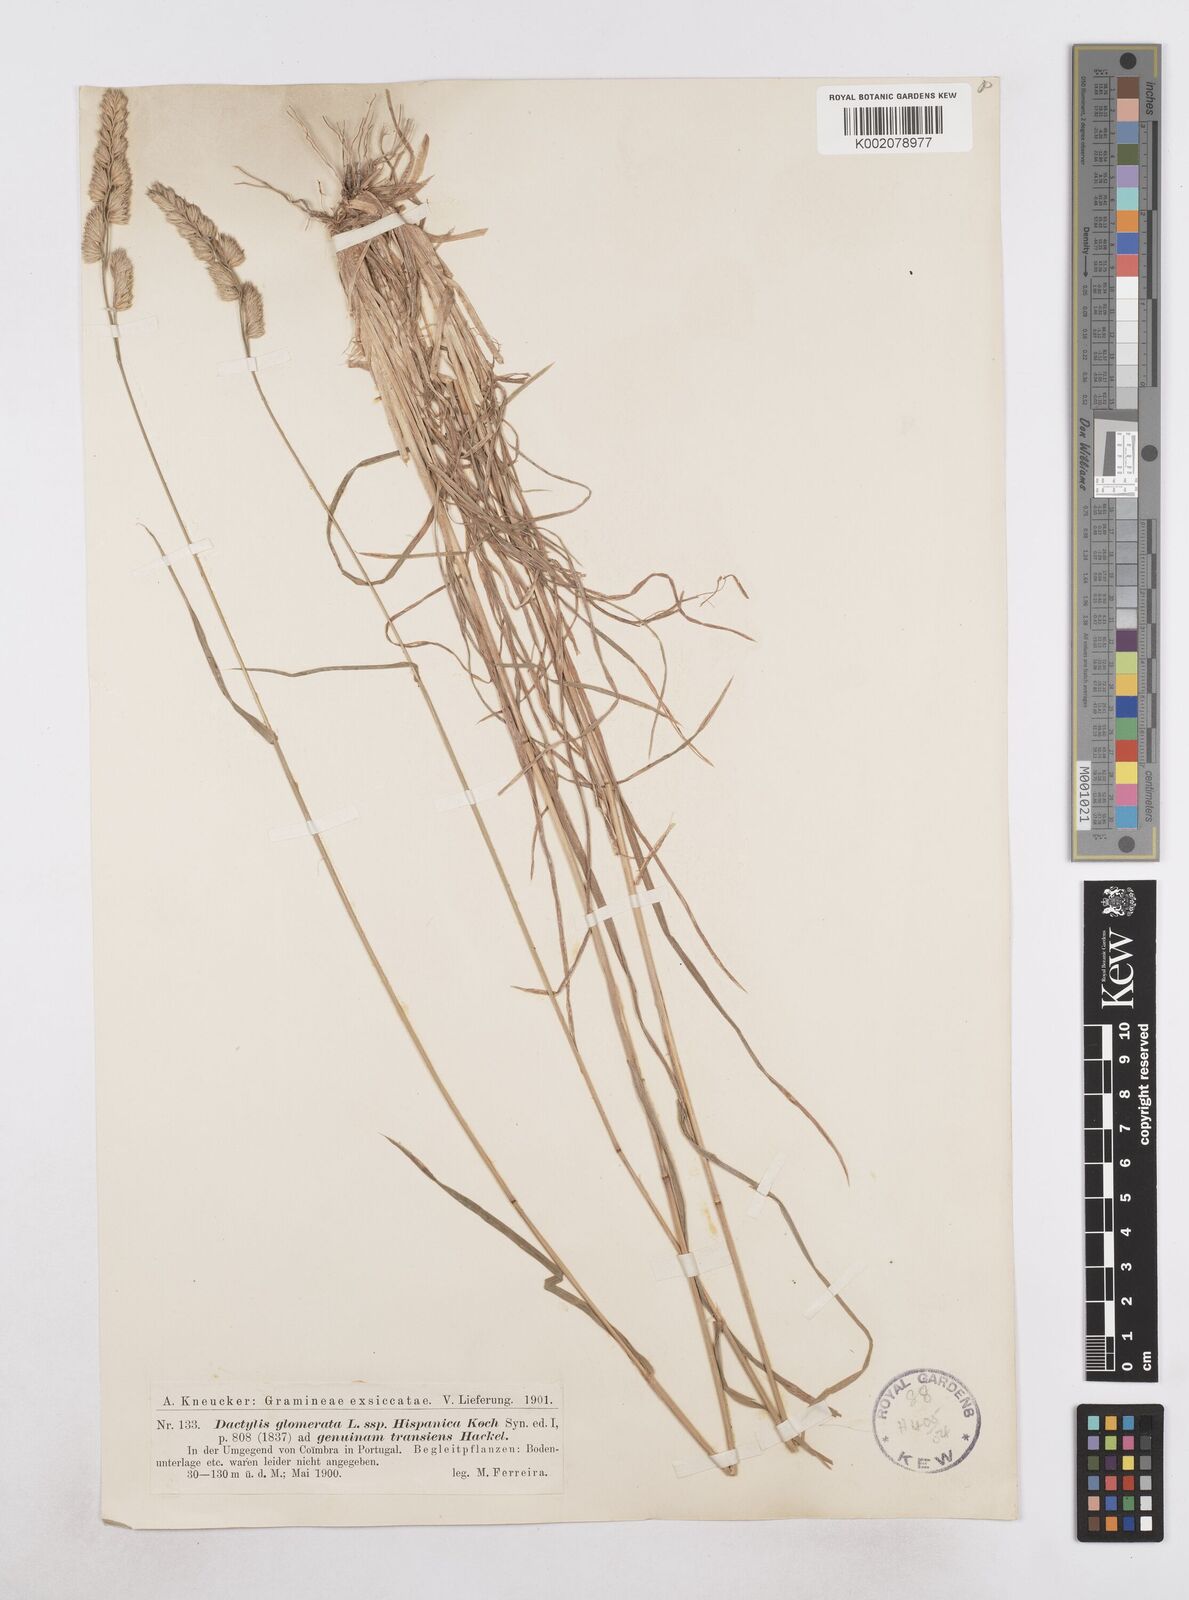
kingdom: Plantae
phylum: Tracheophyta
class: Liliopsida
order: Poales
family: Poaceae
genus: Dactylis
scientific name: Dactylis glomerata
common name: Orchardgrass
